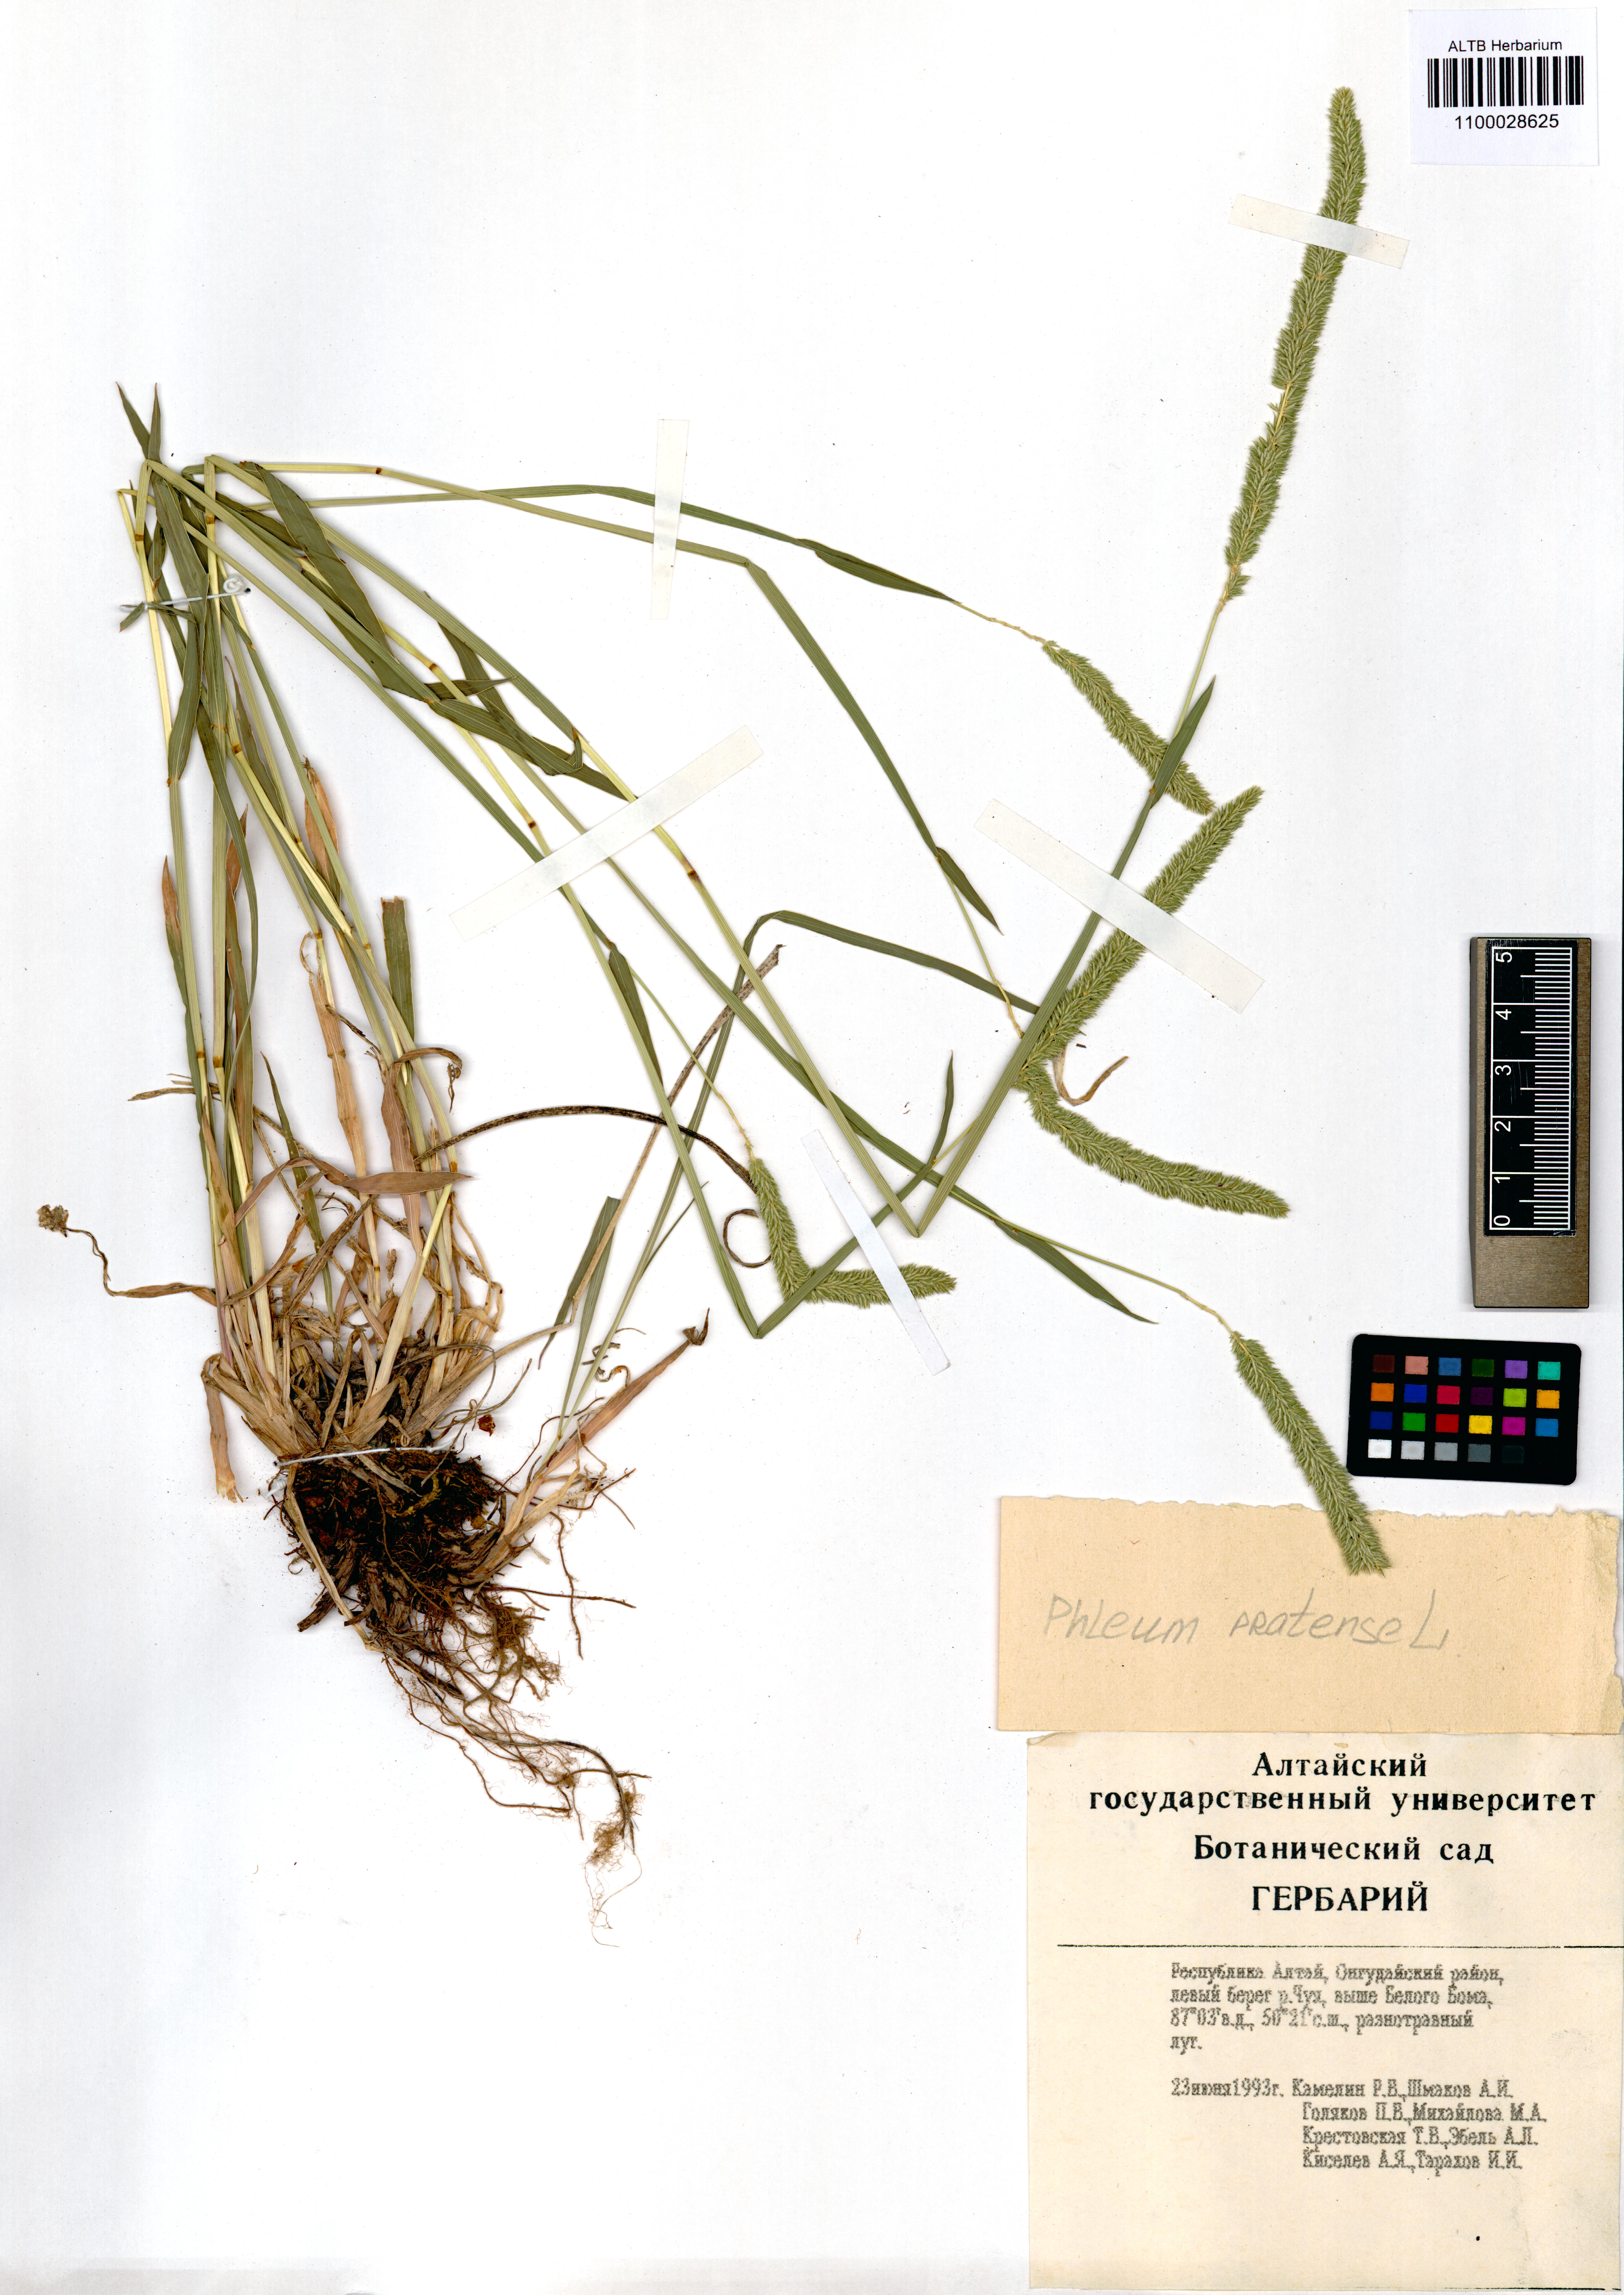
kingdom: Plantae
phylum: Tracheophyta
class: Liliopsida
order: Poales
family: Poaceae
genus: Phleum
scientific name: Phleum pratense
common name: Timothy grass
